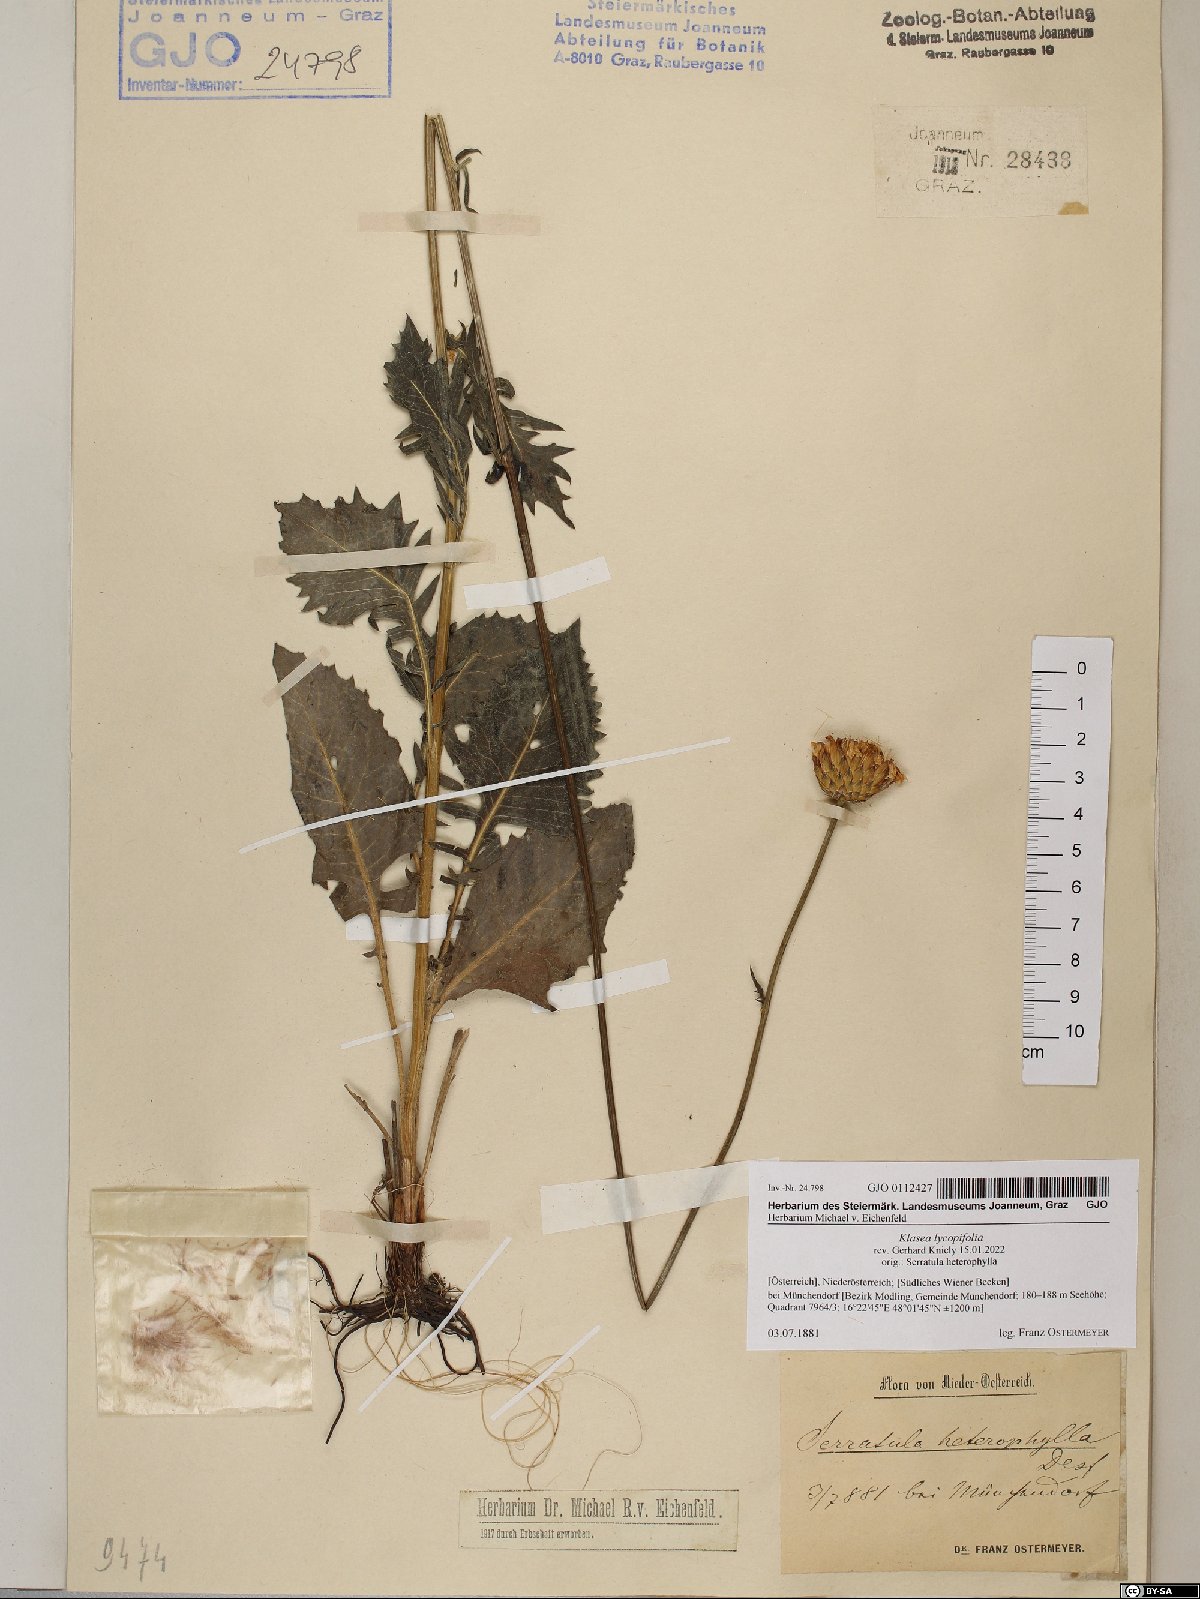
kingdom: Plantae
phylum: Tracheophyta
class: Magnoliopsida
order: Asterales
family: Asteraceae
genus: Klasea
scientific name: Klasea lycopifolia
